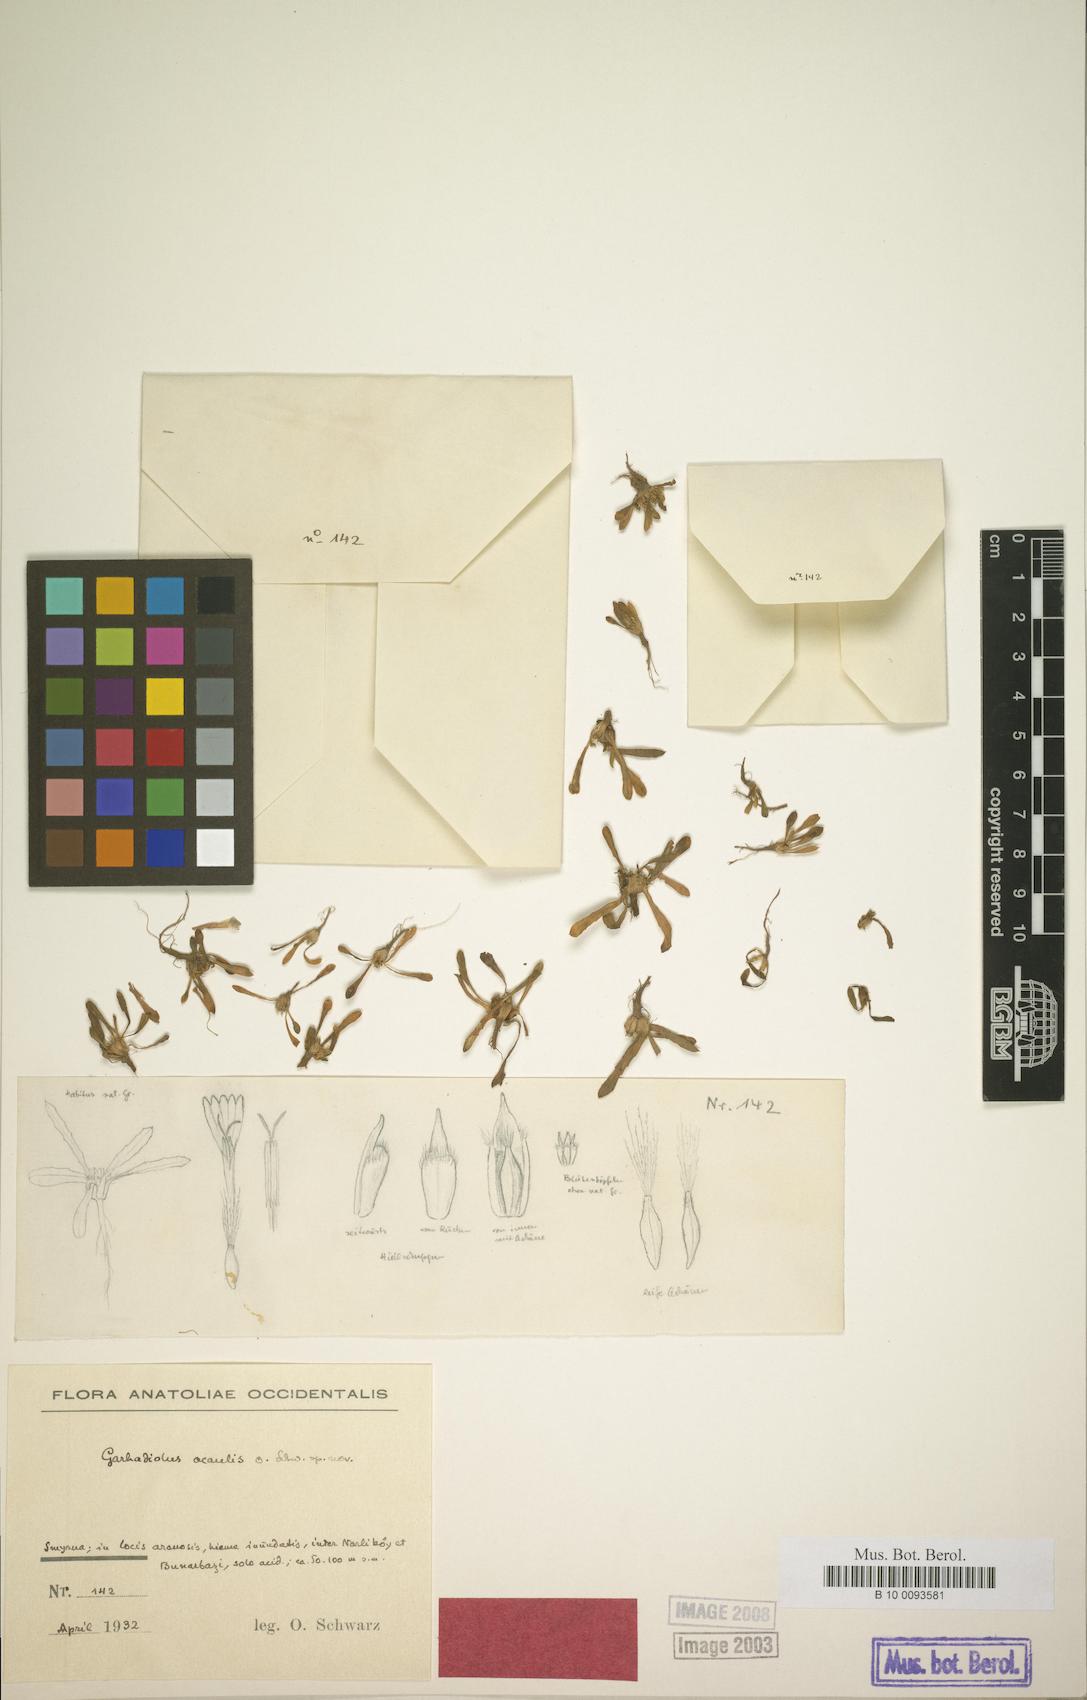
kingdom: Plantae
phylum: Tracheophyta
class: Magnoliopsida
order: Asterales
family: Asteraceae
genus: Crepis
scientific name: Crepis pusilla
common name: Dandelion crepis
